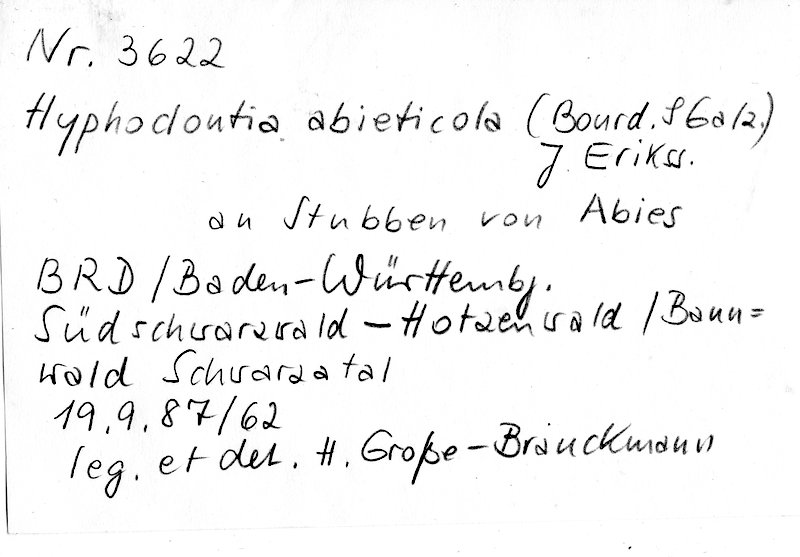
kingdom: Plantae
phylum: Tracheophyta
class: Pinopsida
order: Pinales
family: Pinaceae
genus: Abies
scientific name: Abies
